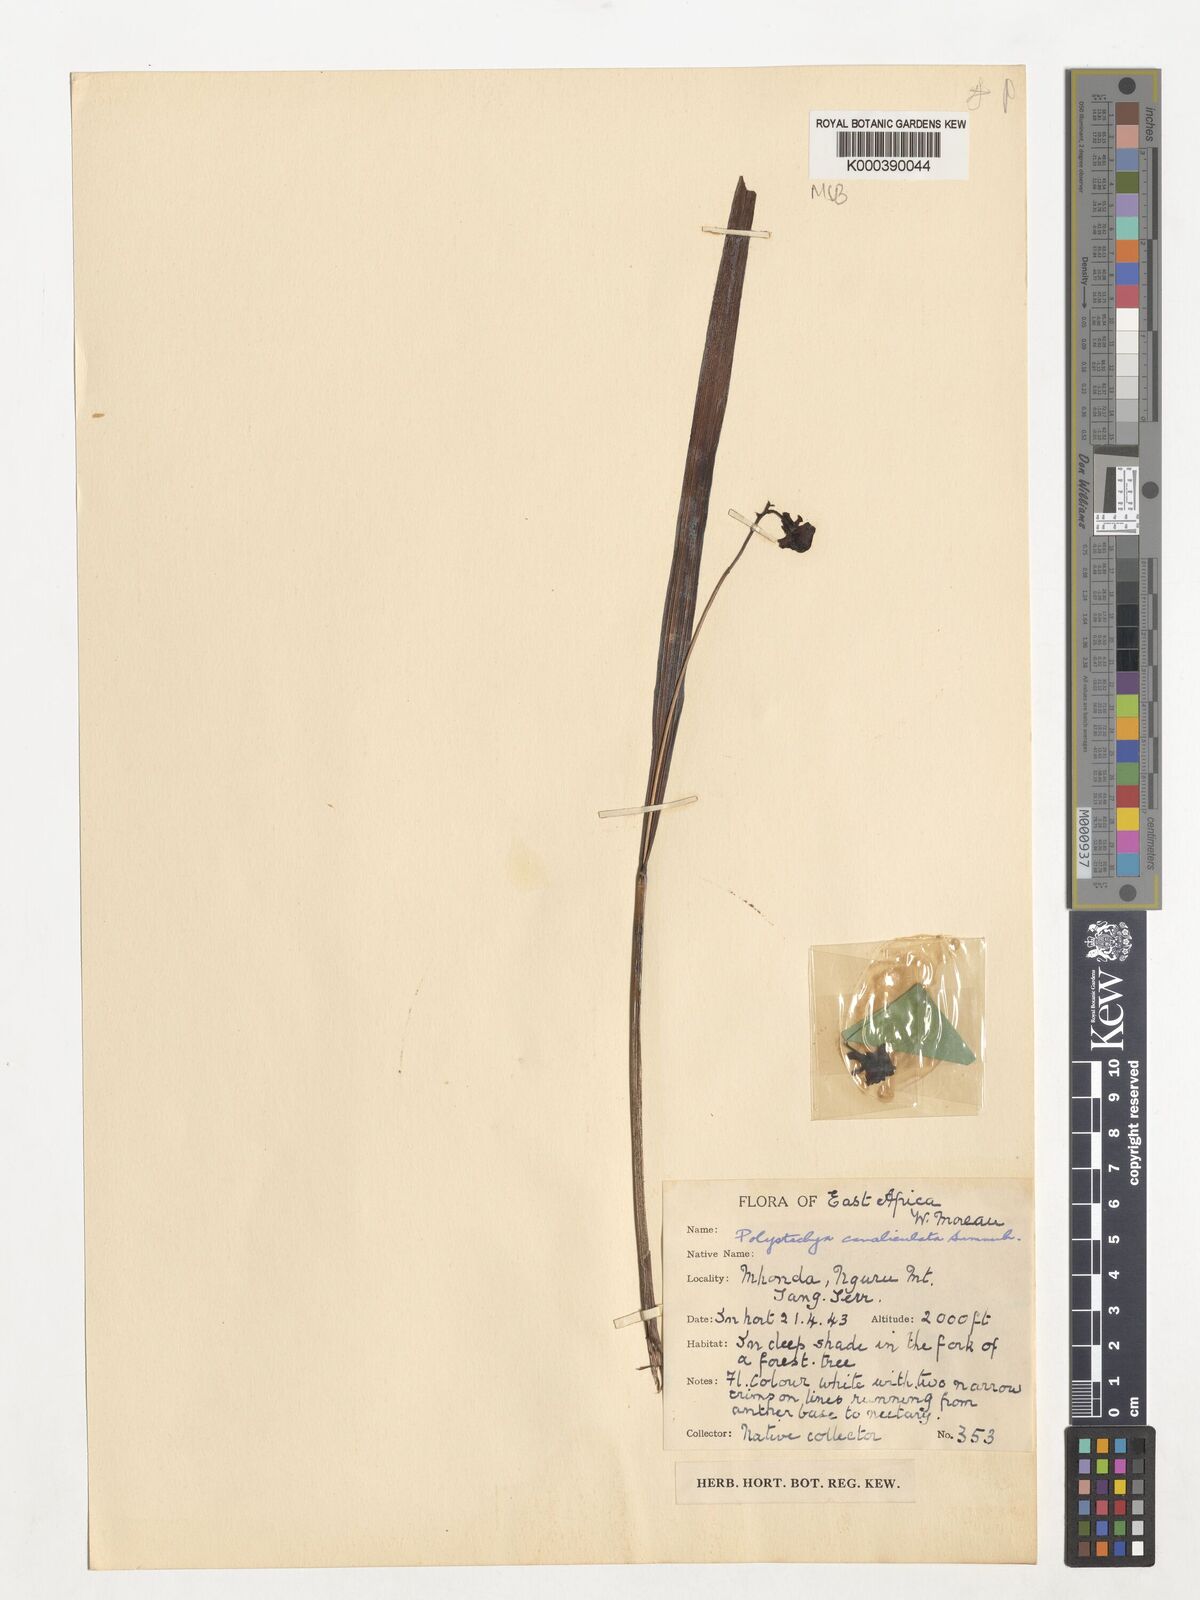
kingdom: Plantae
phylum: Tracheophyta
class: Liliopsida
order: Asparagales
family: Orchidaceae
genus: Polystachya
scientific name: Polystachya canaliculata
